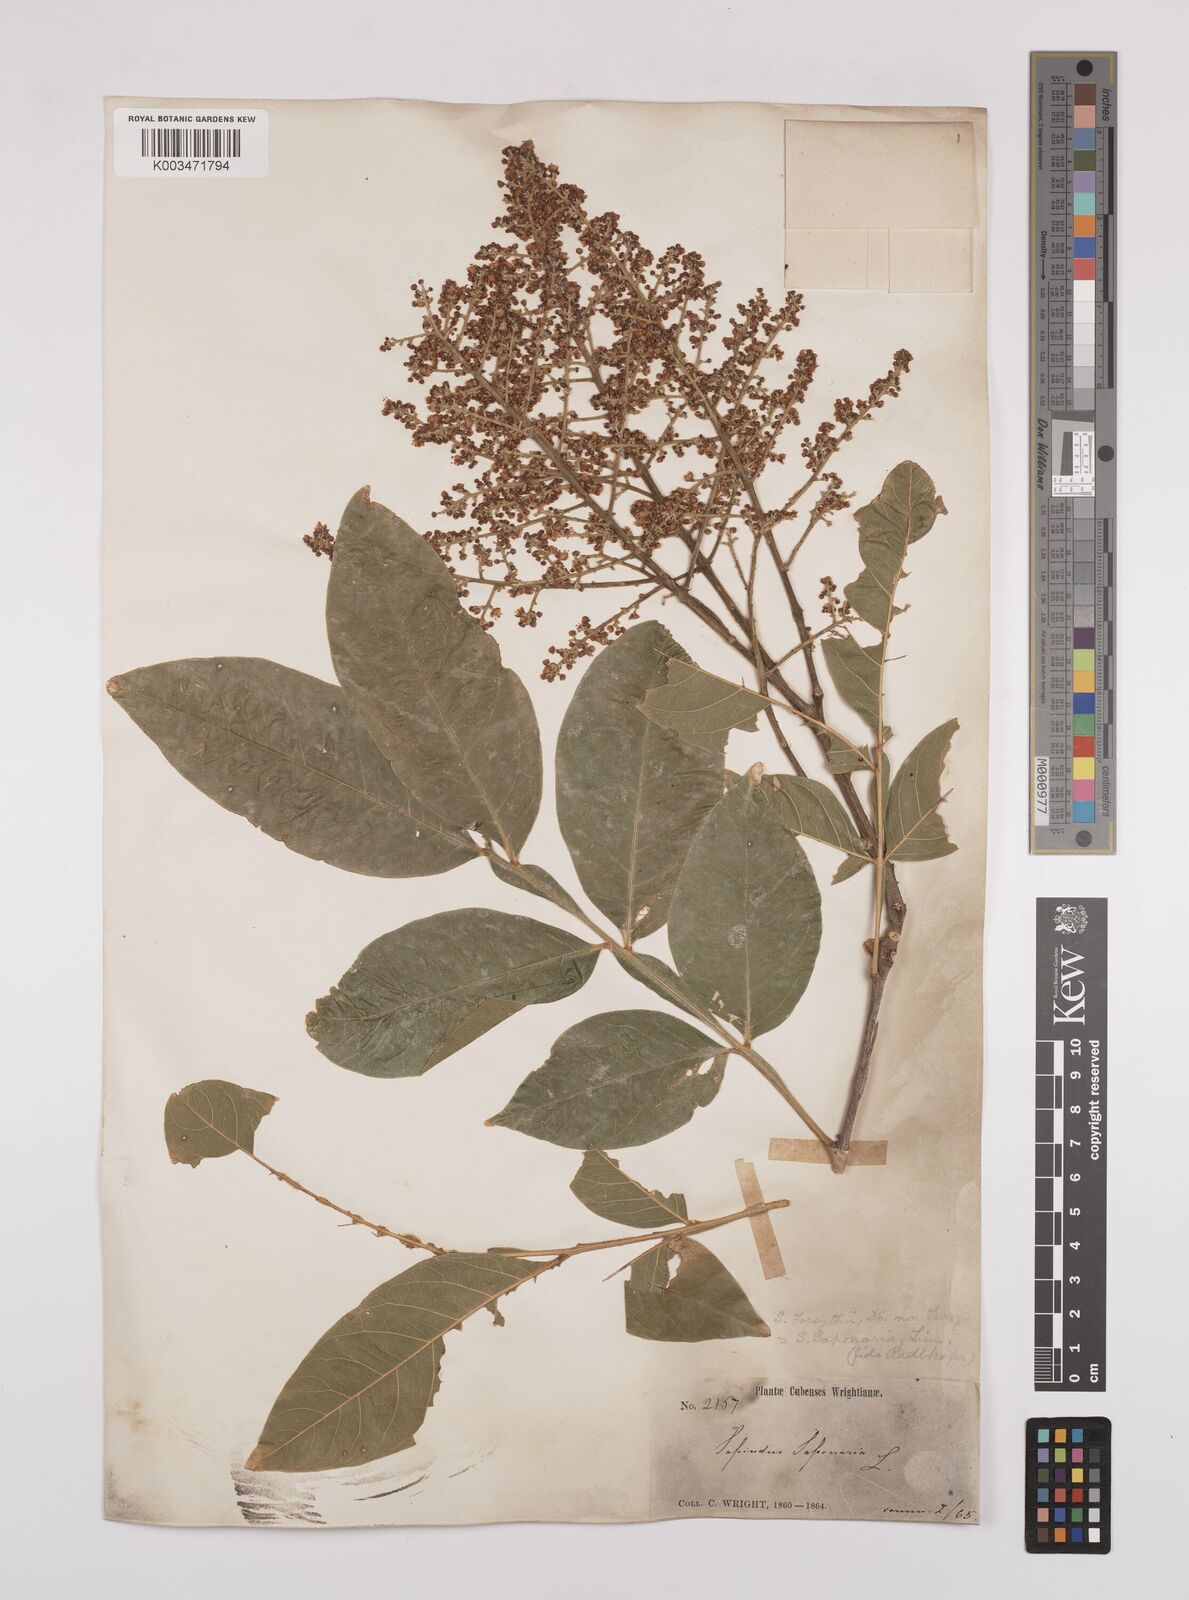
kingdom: Plantae
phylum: Tracheophyta
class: Magnoliopsida
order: Sapindales
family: Sapindaceae
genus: Sapindus
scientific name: Sapindus saponaria
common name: Wingleaf soapberry
